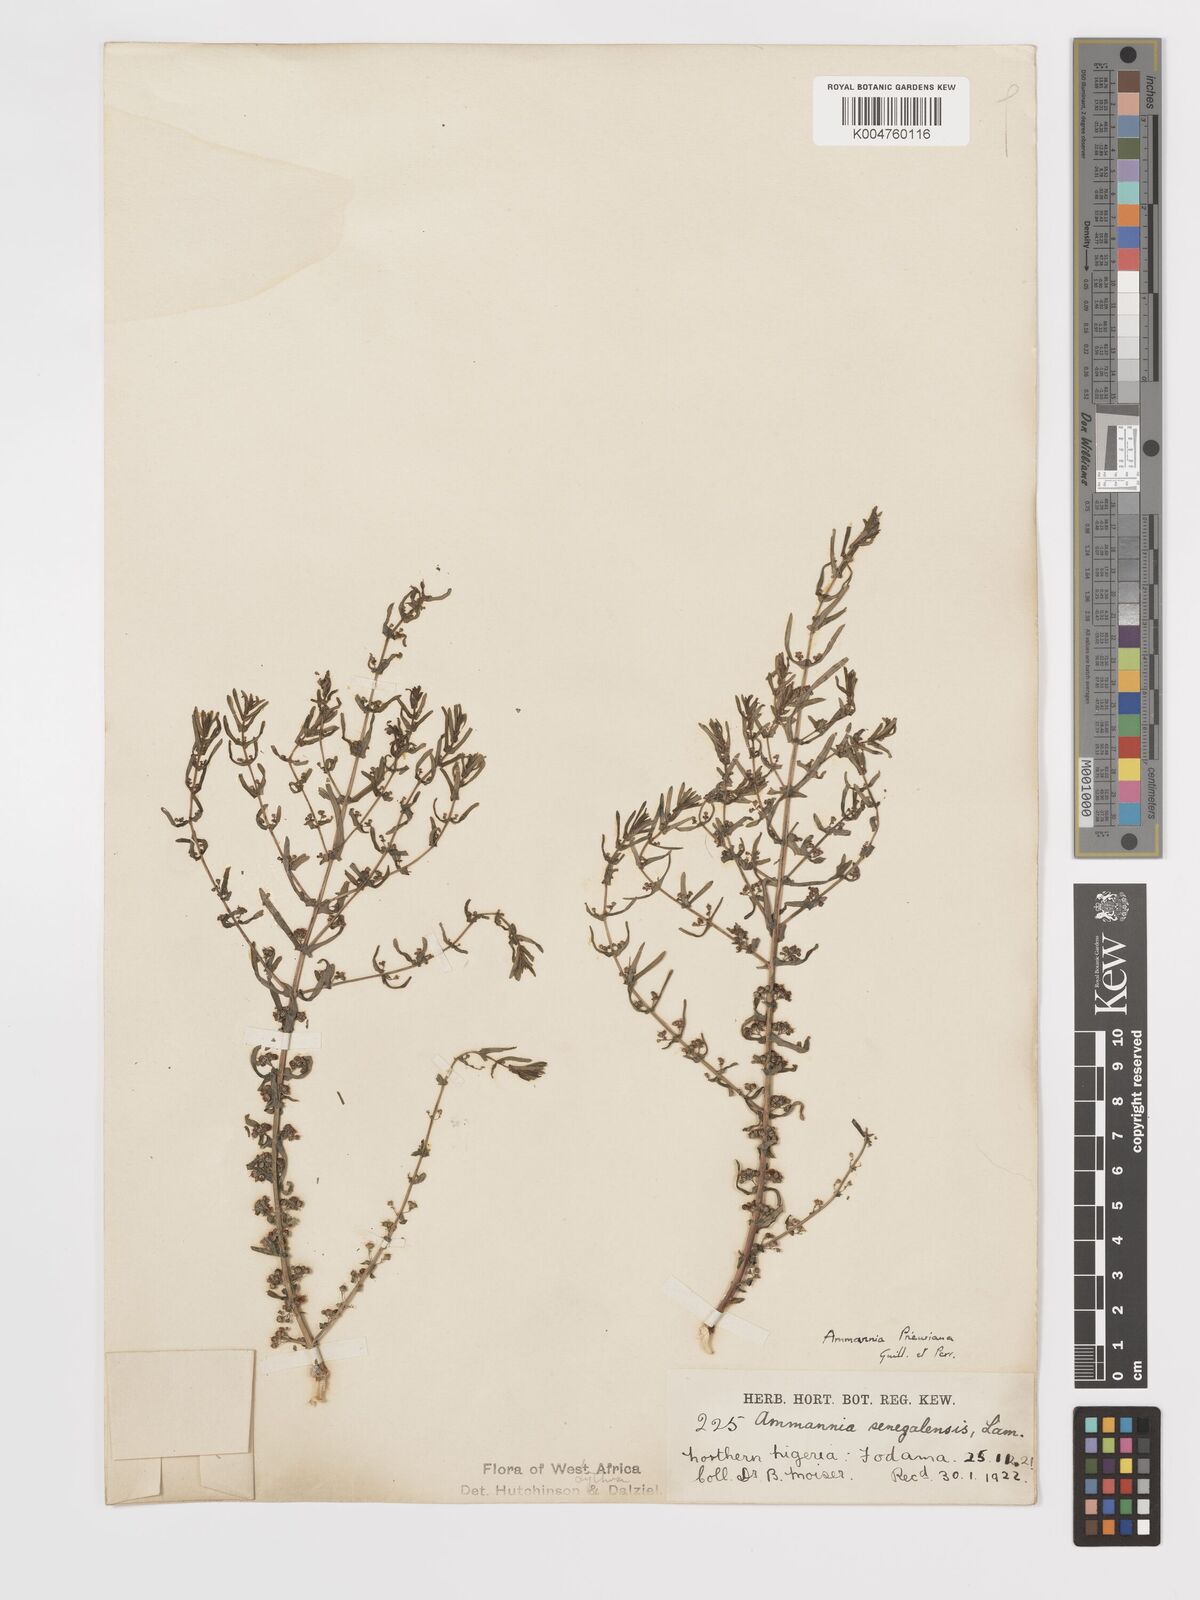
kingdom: Plantae
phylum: Tracheophyta
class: Magnoliopsida
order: Myrtales
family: Lythraceae
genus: Ammannia
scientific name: Ammannia prieuriana
